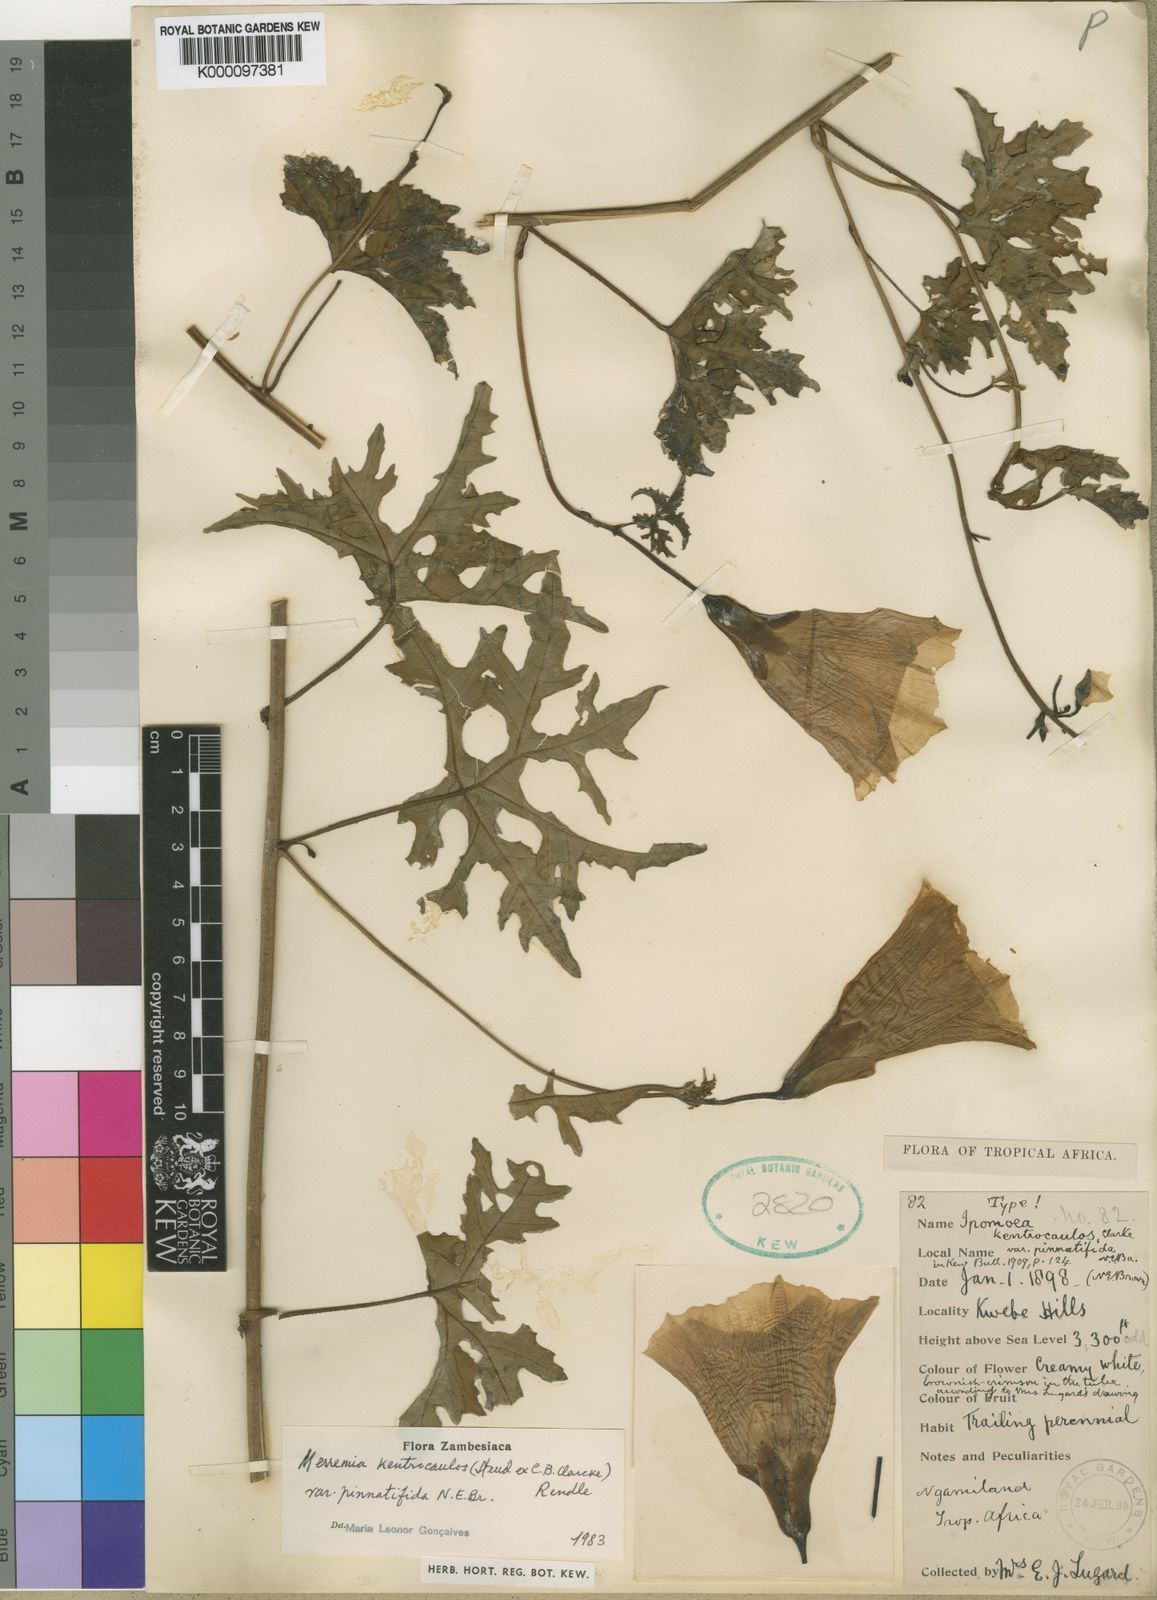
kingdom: Plantae
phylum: Tracheophyta
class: Magnoliopsida
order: Solanales
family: Convolvulaceae
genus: Distimake
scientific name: Distimake
